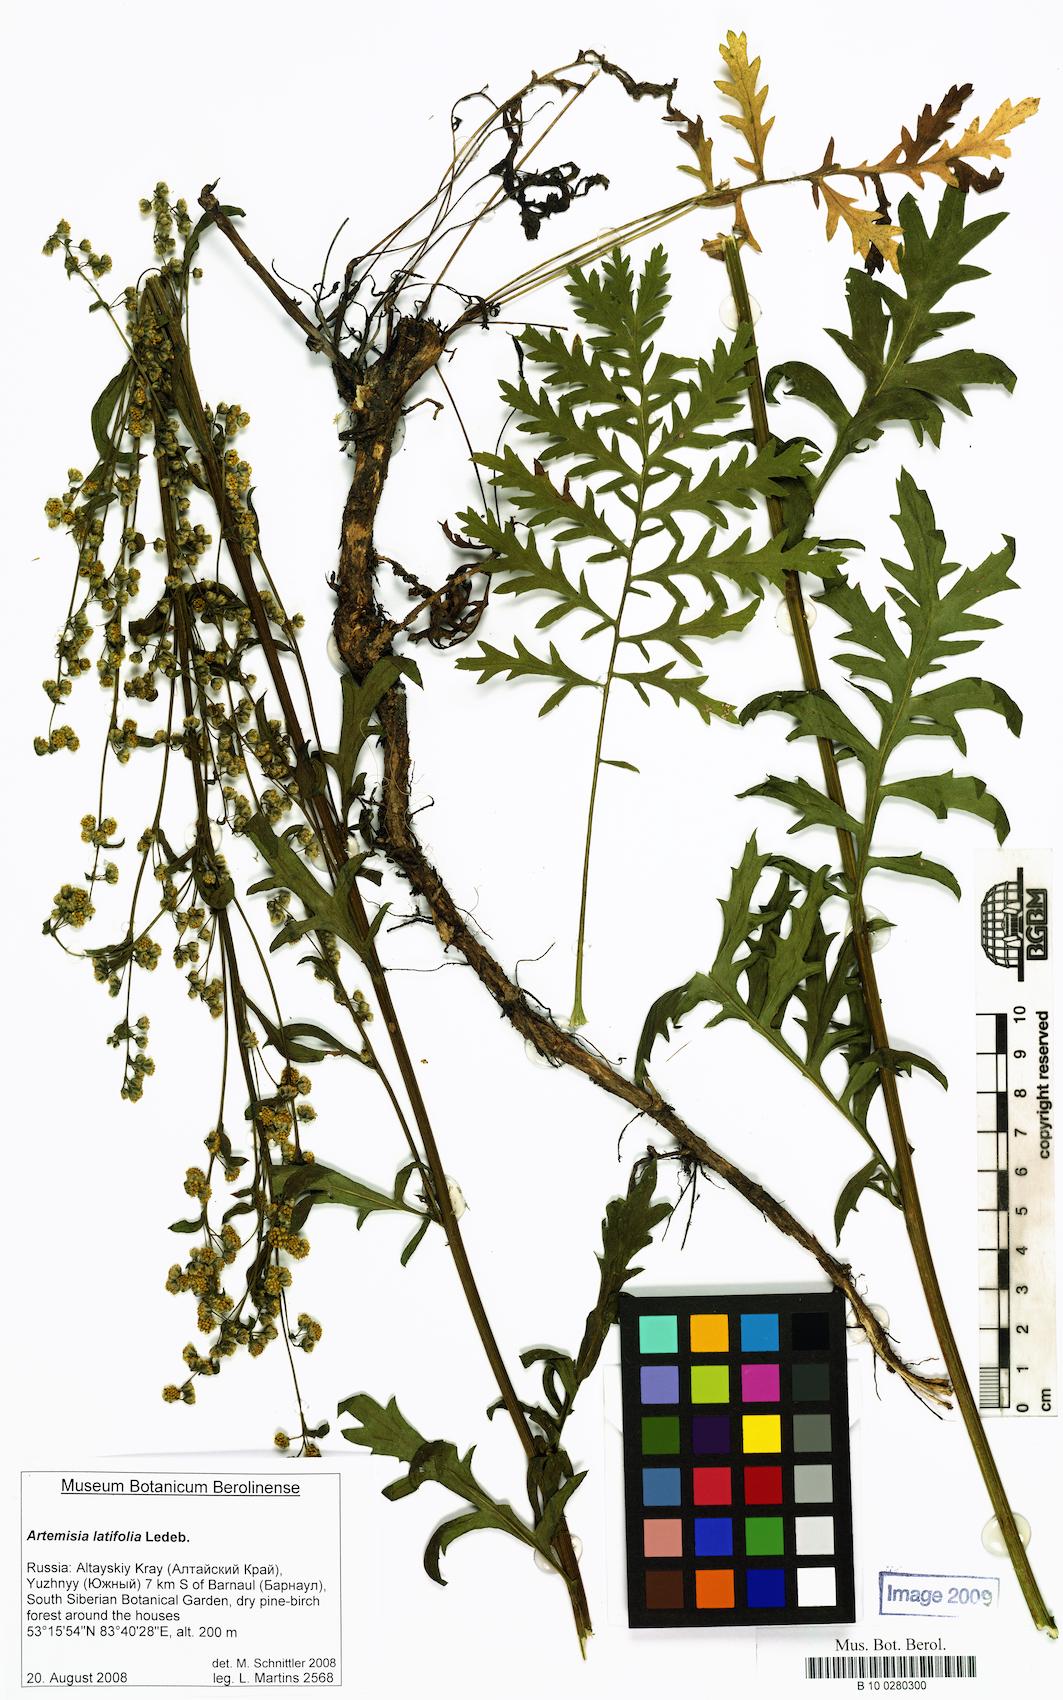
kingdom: Plantae
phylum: Tracheophyta
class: Magnoliopsida
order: Asterales
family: Asteraceae
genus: Artemisia
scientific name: Artemisia latifolia
